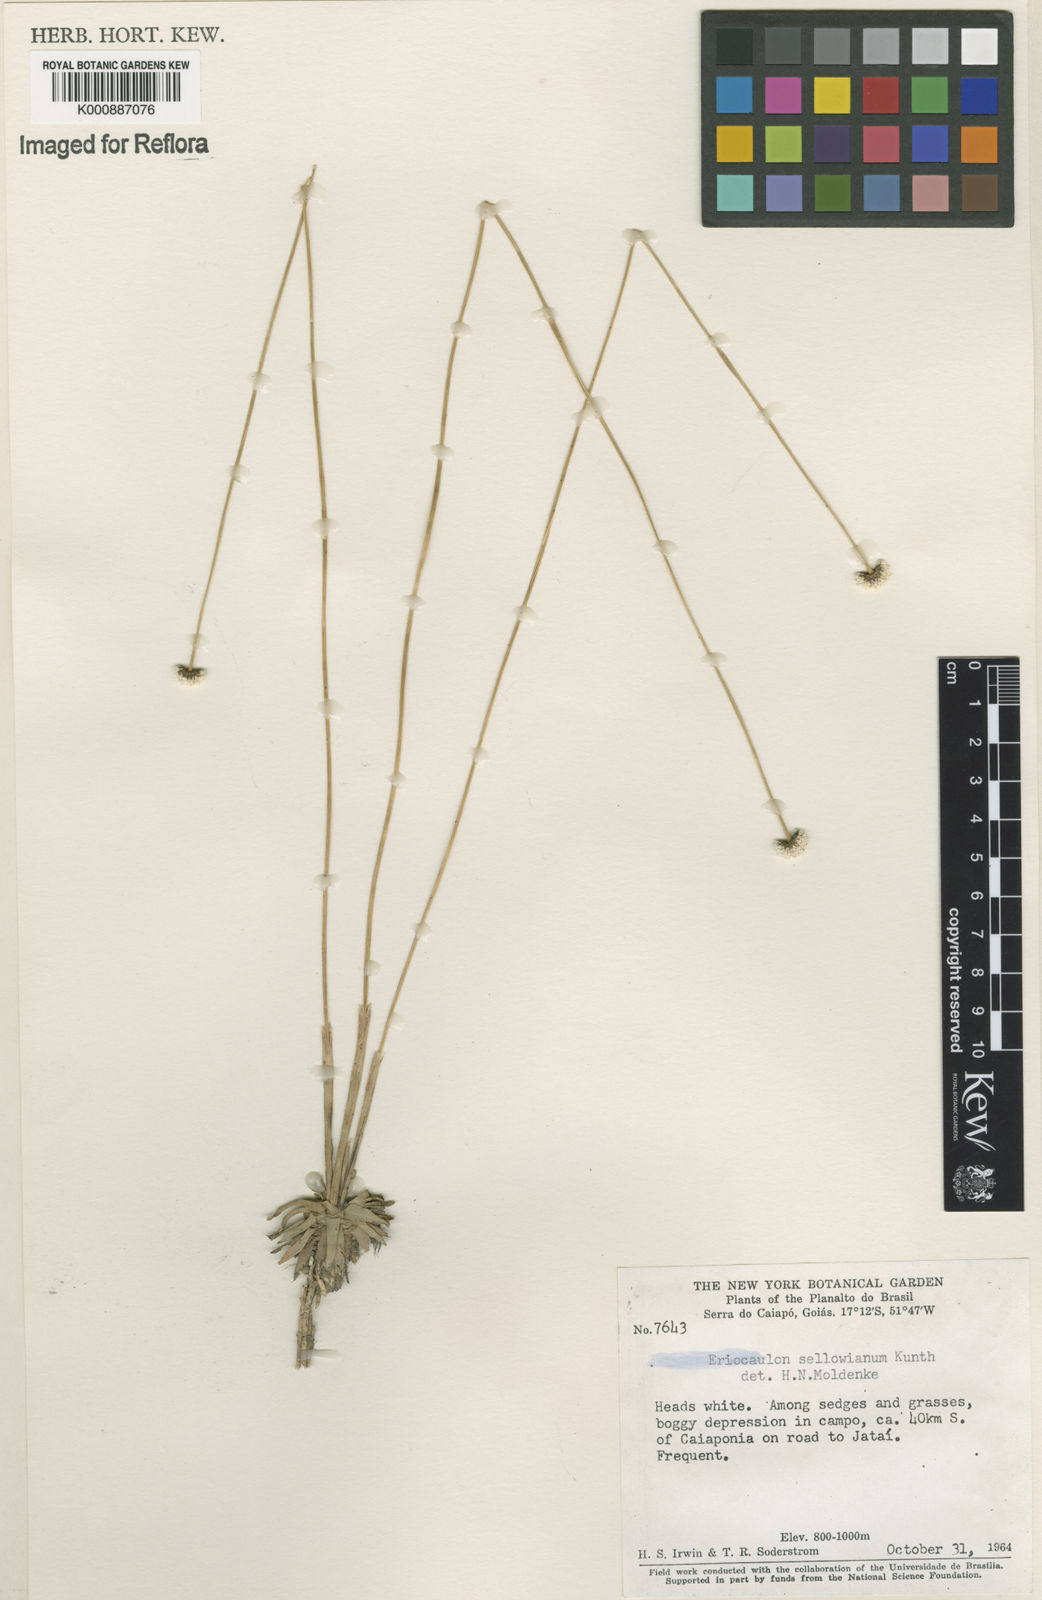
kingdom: Plantae
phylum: Tracheophyta
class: Liliopsida
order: Poales
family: Eriocaulaceae
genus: Eriocaulon
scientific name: Eriocaulon sellowianum
